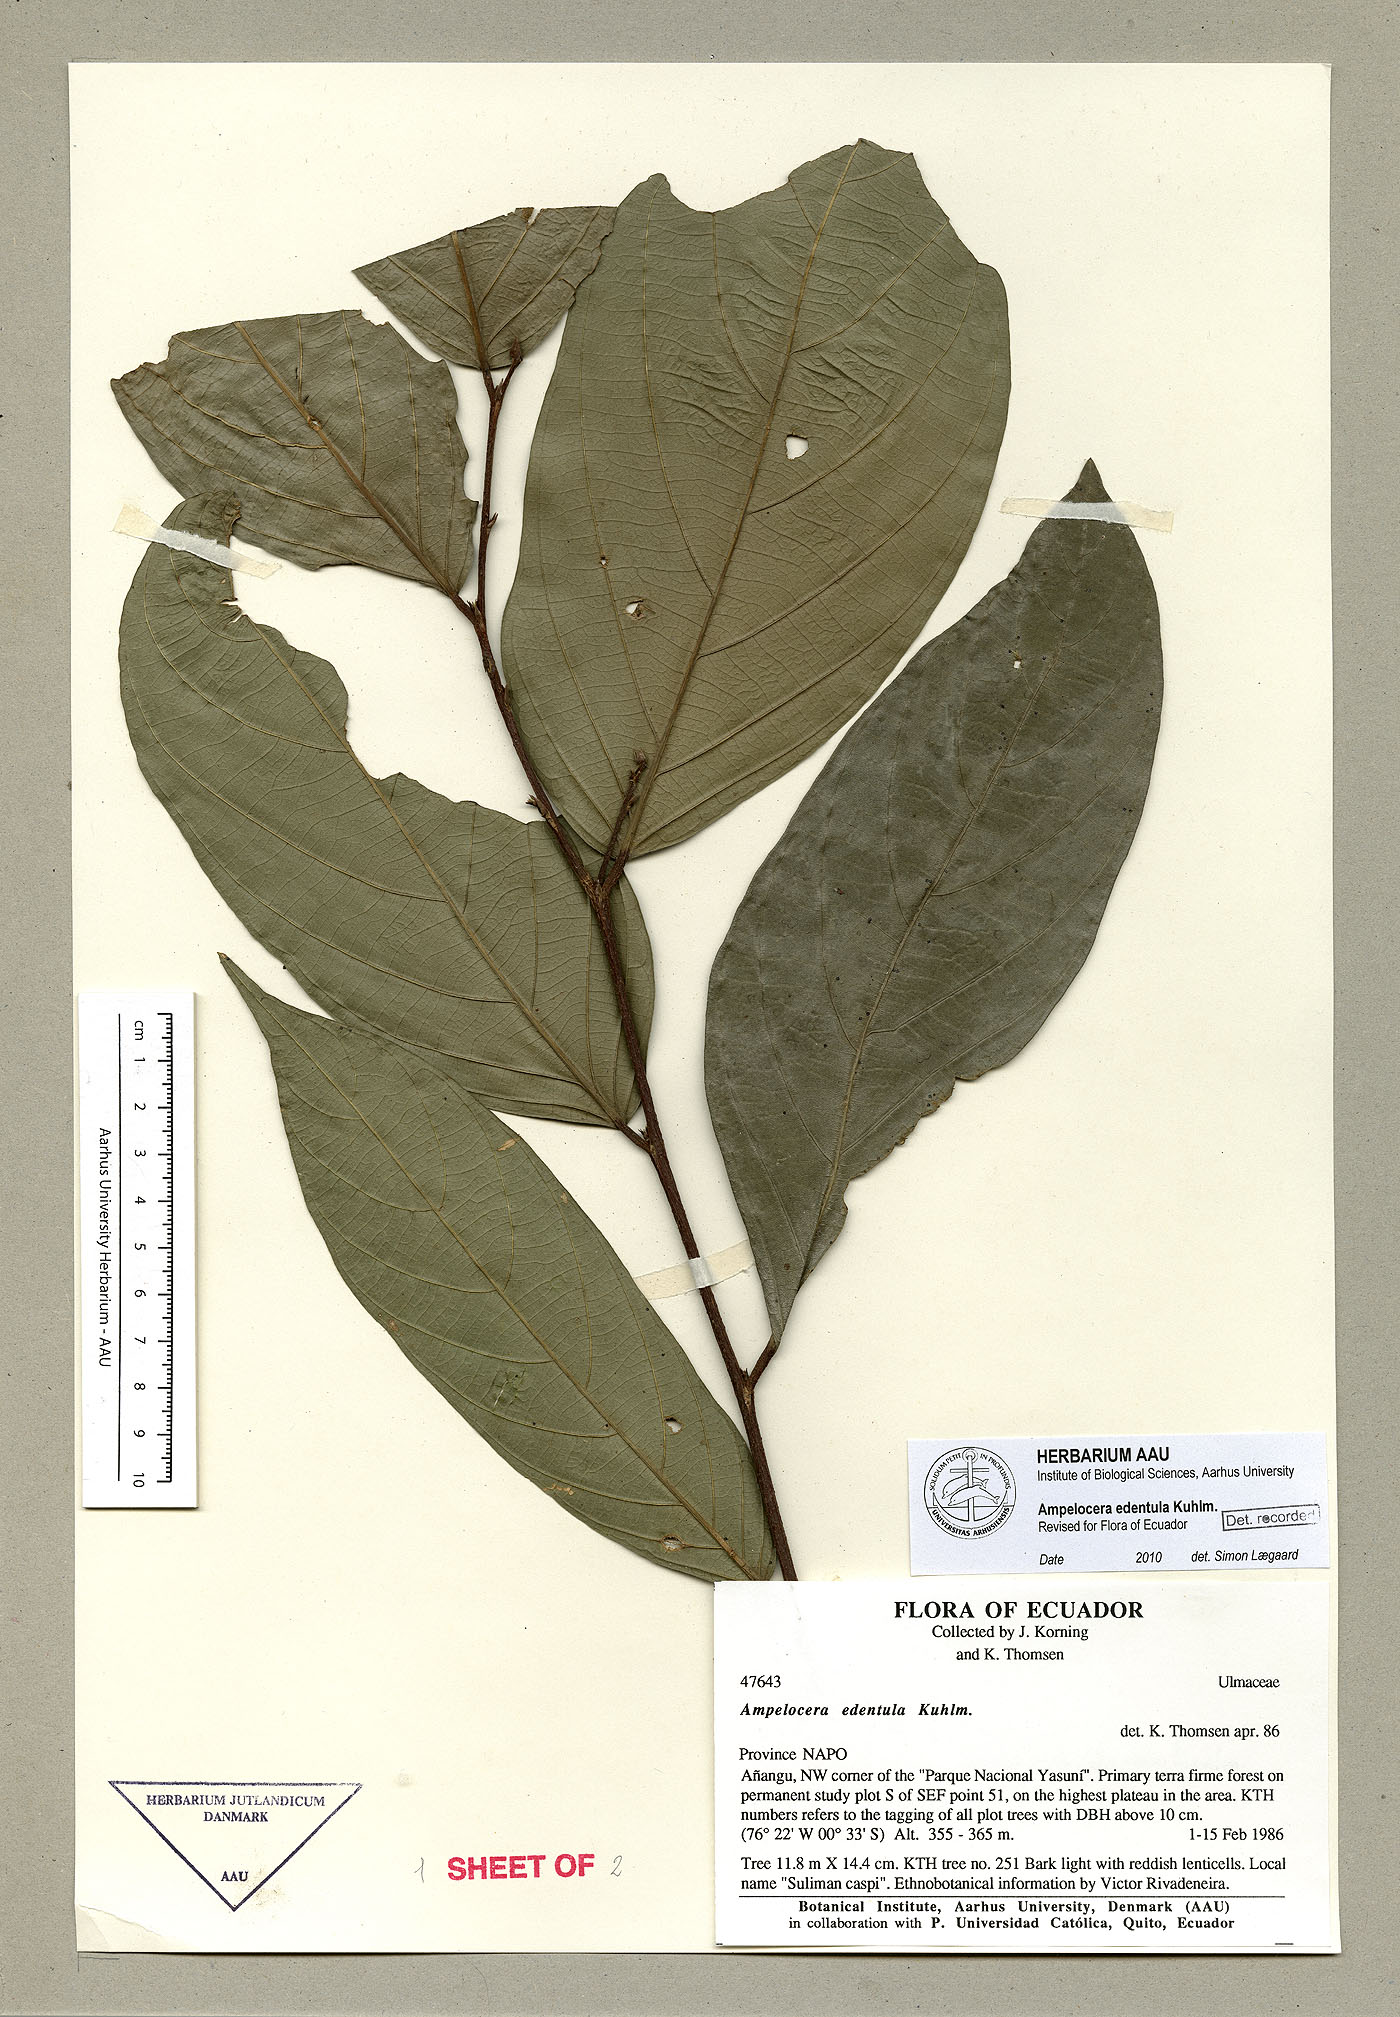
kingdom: Plantae
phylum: Tracheophyta
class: Magnoliopsida
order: Rosales
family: Cannabaceae
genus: Ampelocera
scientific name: Ampelocera edentula
